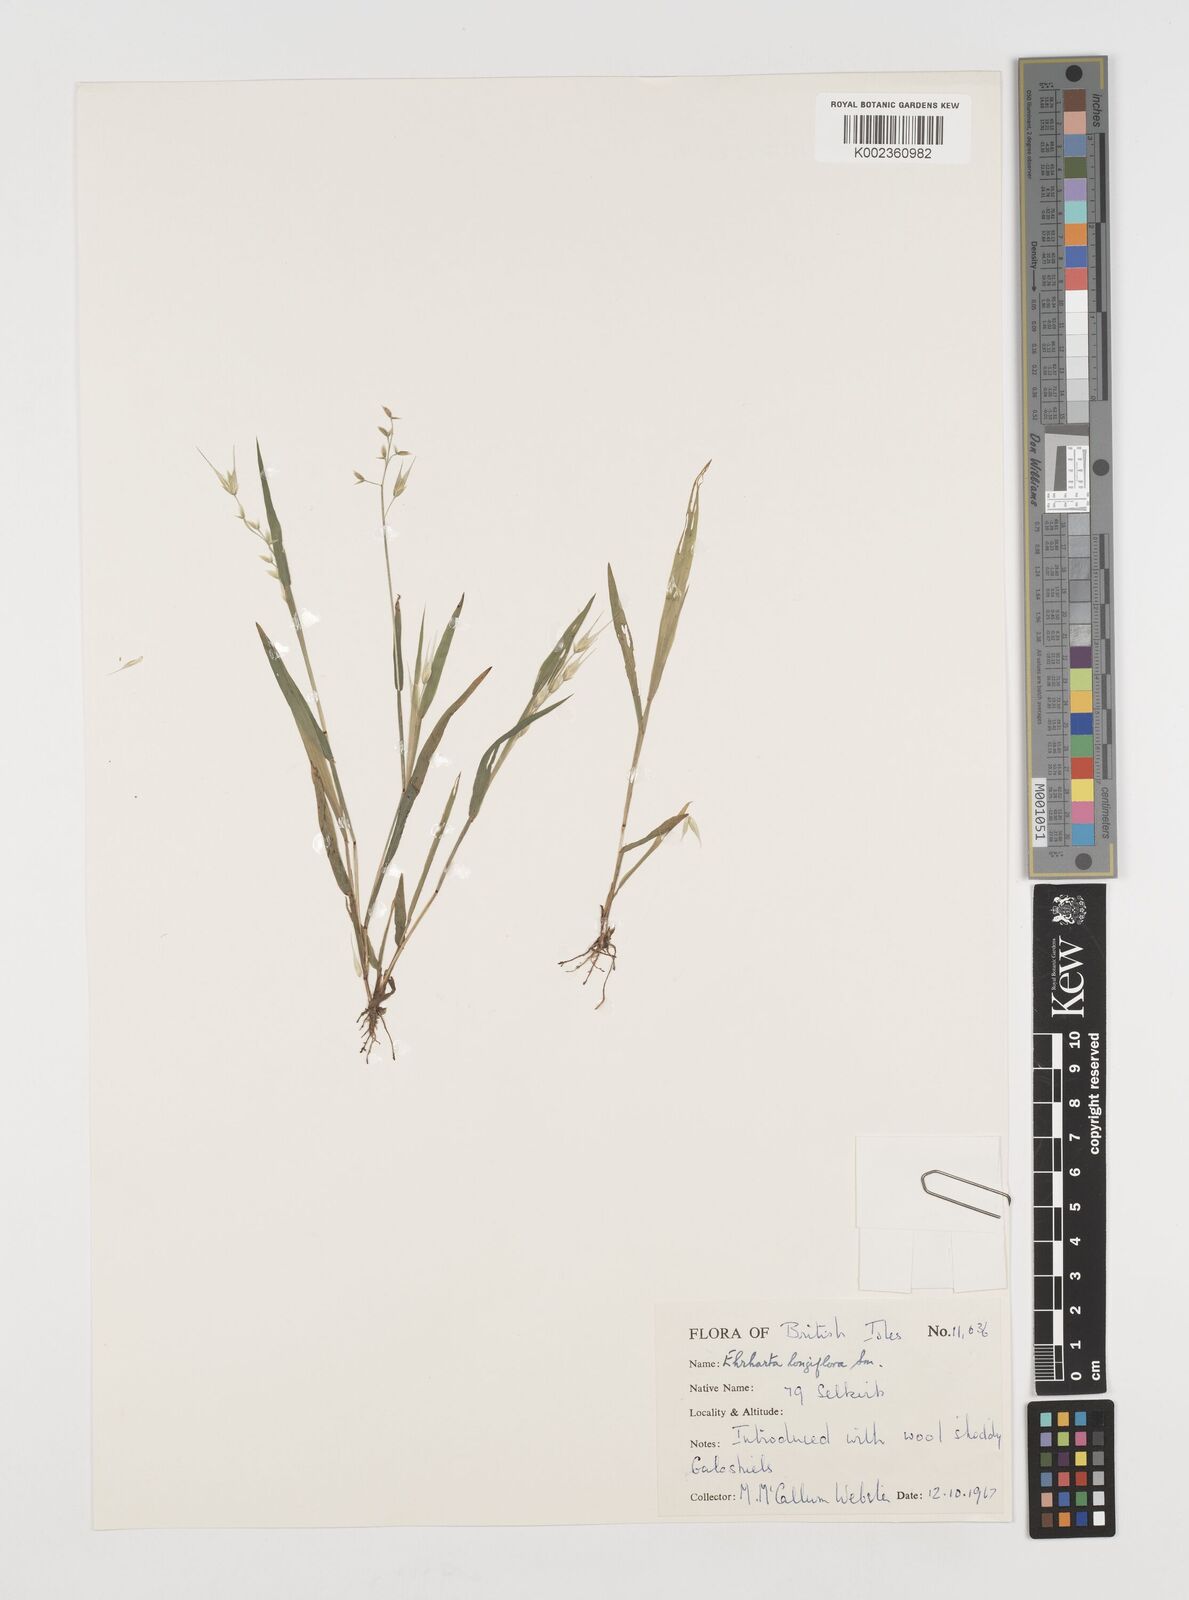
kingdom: Plantae
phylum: Tracheophyta
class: Liliopsida
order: Poales
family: Poaceae
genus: Ehrharta
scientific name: Ehrharta longiflora
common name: Longflowered veldtgrass
